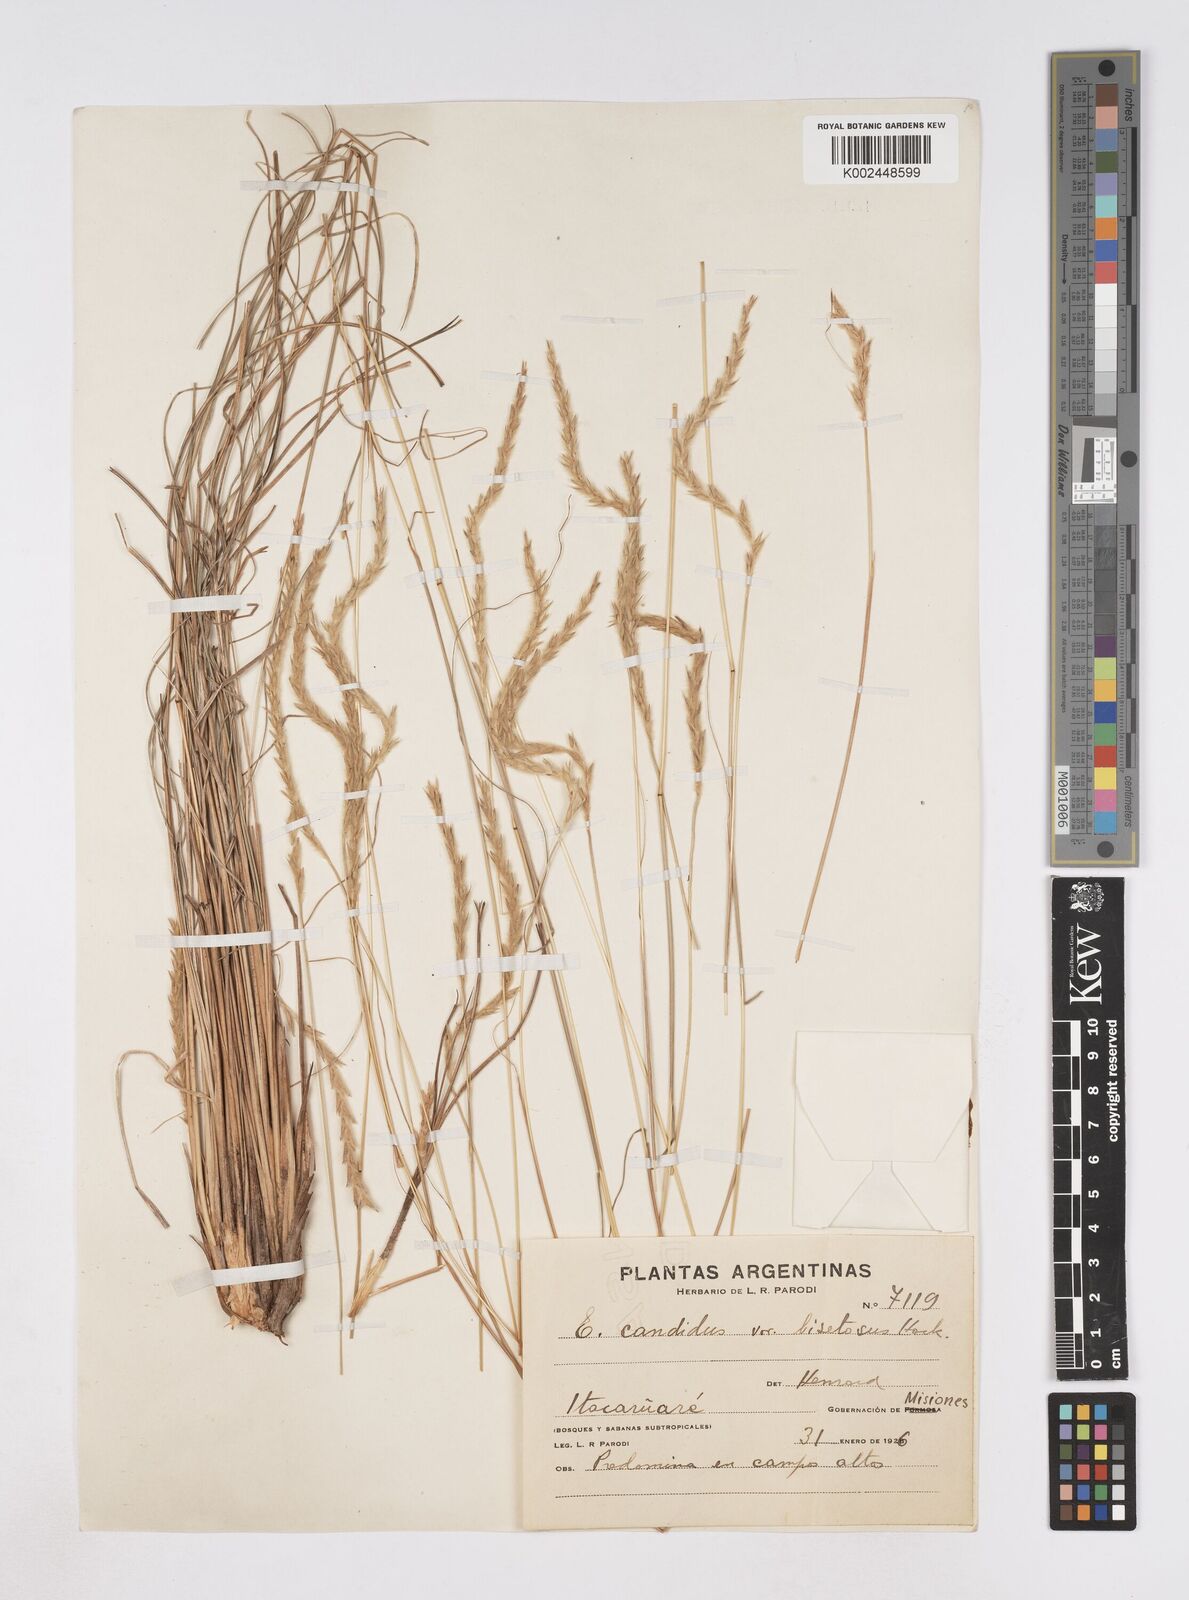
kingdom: Plantae
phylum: Tracheophyta
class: Liliopsida
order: Poales
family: Poaceae
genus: Elionurus
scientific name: Elionurus muticus
